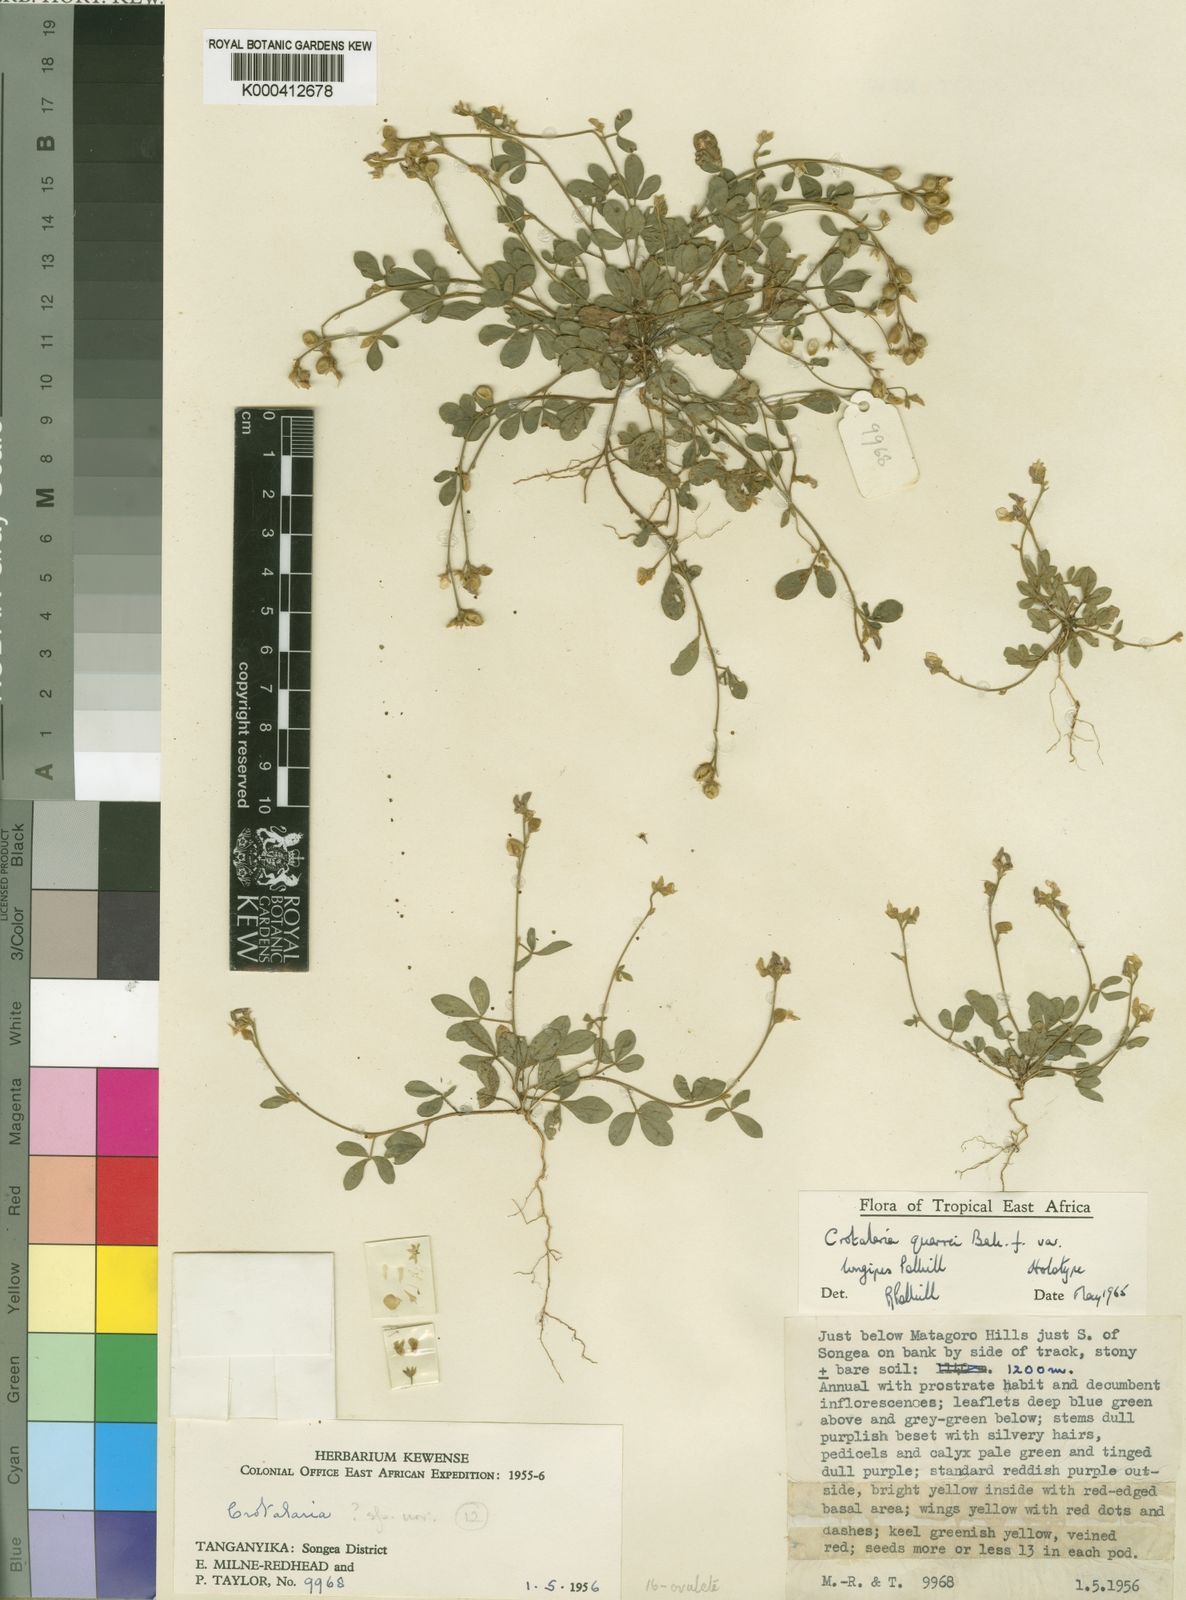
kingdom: Plantae
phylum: Tracheophyta
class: Magnoliopsida
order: Fabales
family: Fabaceae
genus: Crotalaria
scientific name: Crotalaria quarrei
